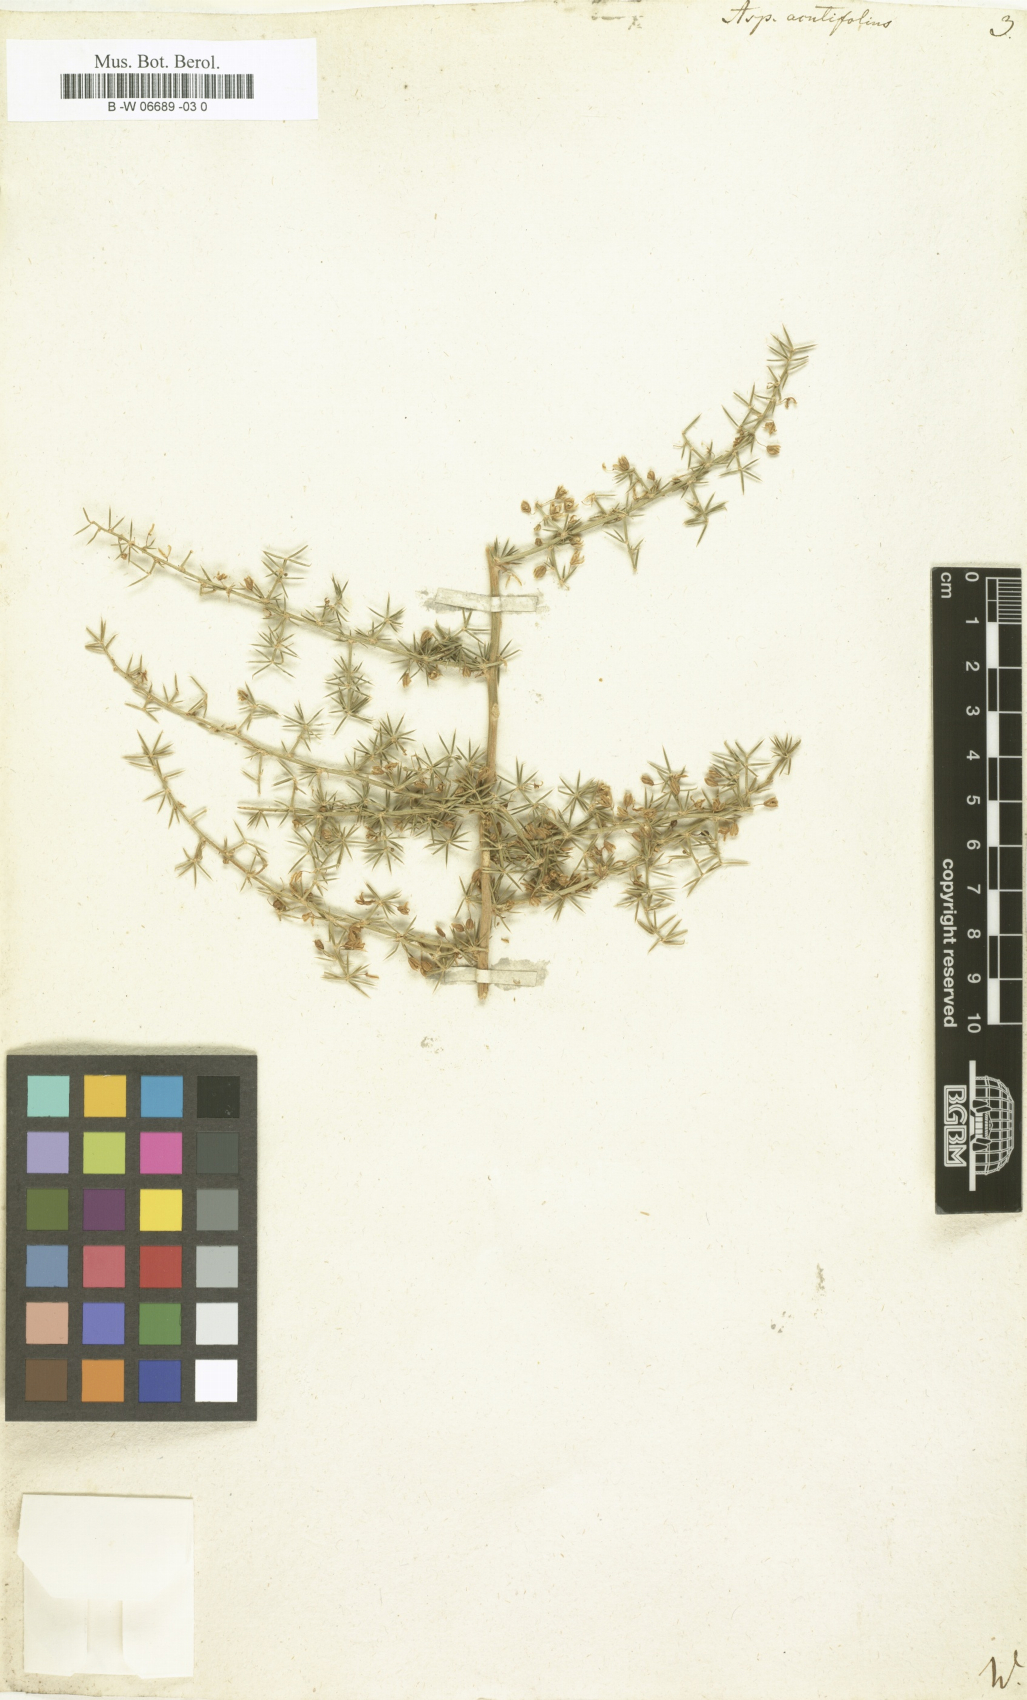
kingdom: Plantae
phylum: Tracheophyta
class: Liliopsida
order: Asparagales
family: Asparagaceae
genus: Asparagus
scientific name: Asparagus acutifolius
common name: Wild asparagus
